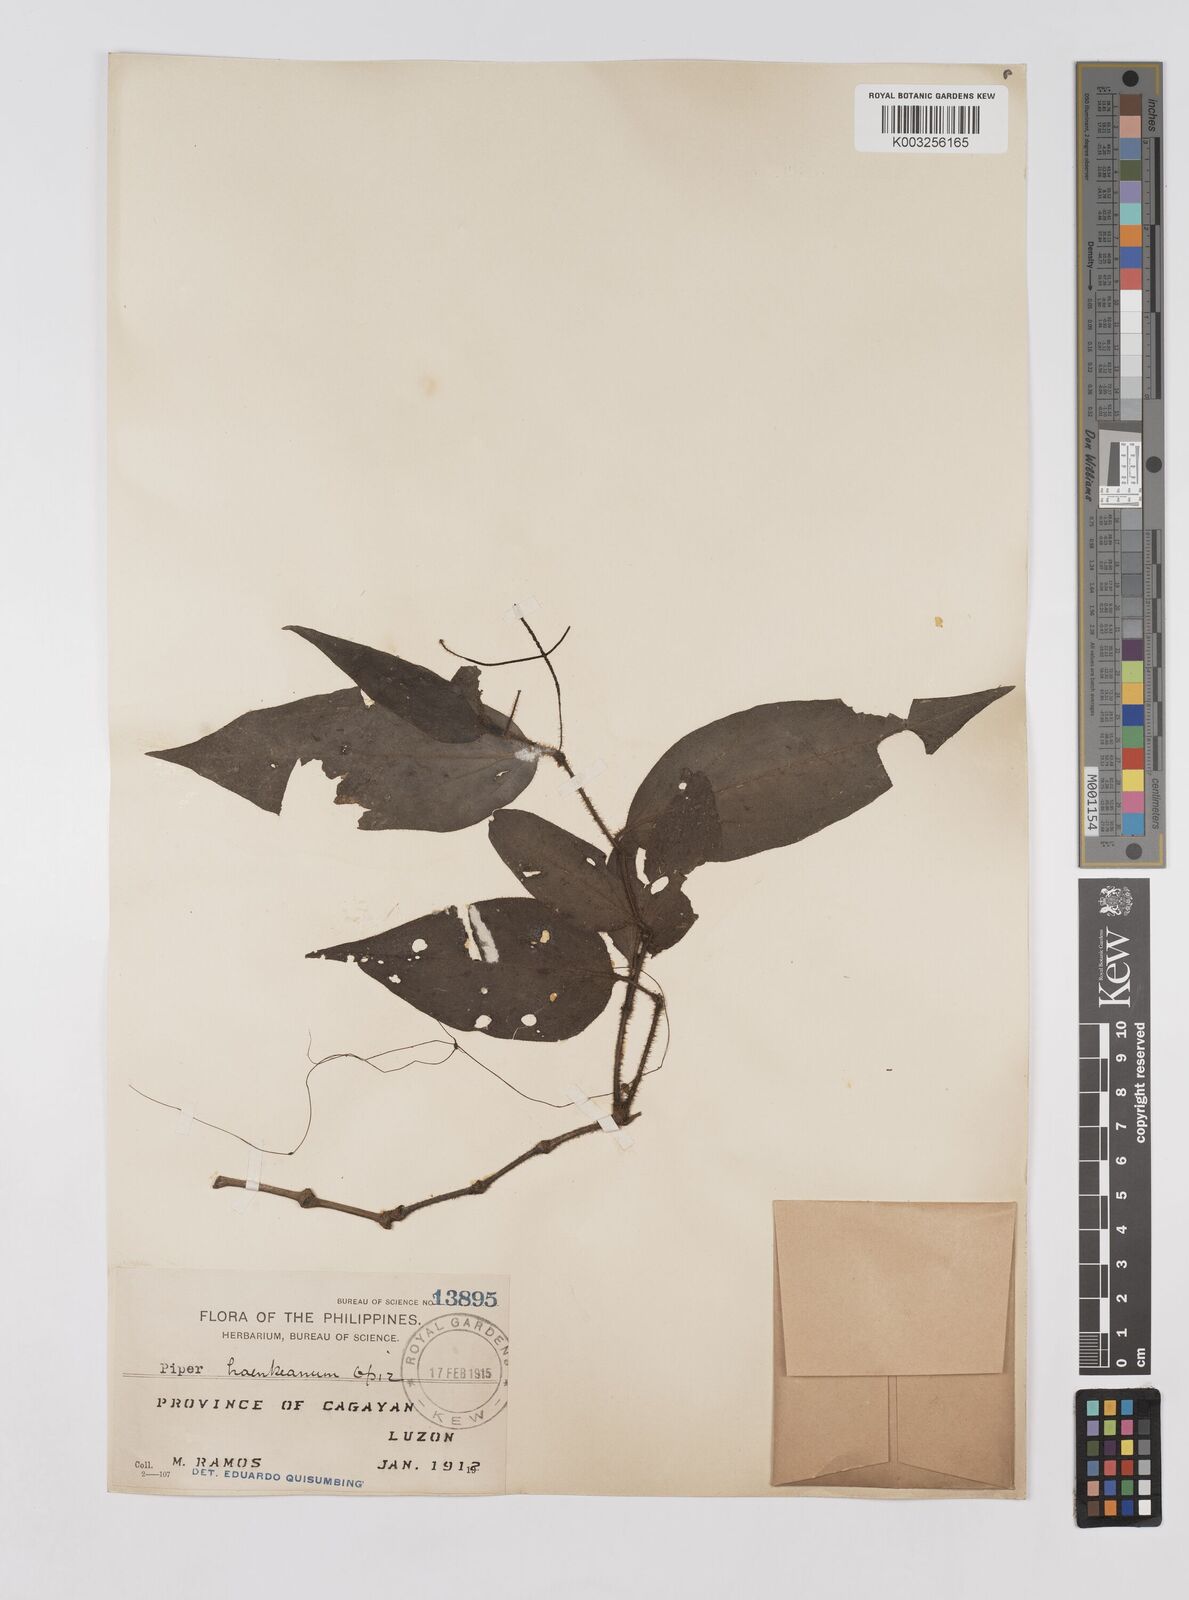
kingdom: Plantae
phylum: Tracheophyta
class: Magnoliopsida
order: Piperales
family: Piperaceae
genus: Piper
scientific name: Piper lanatum
